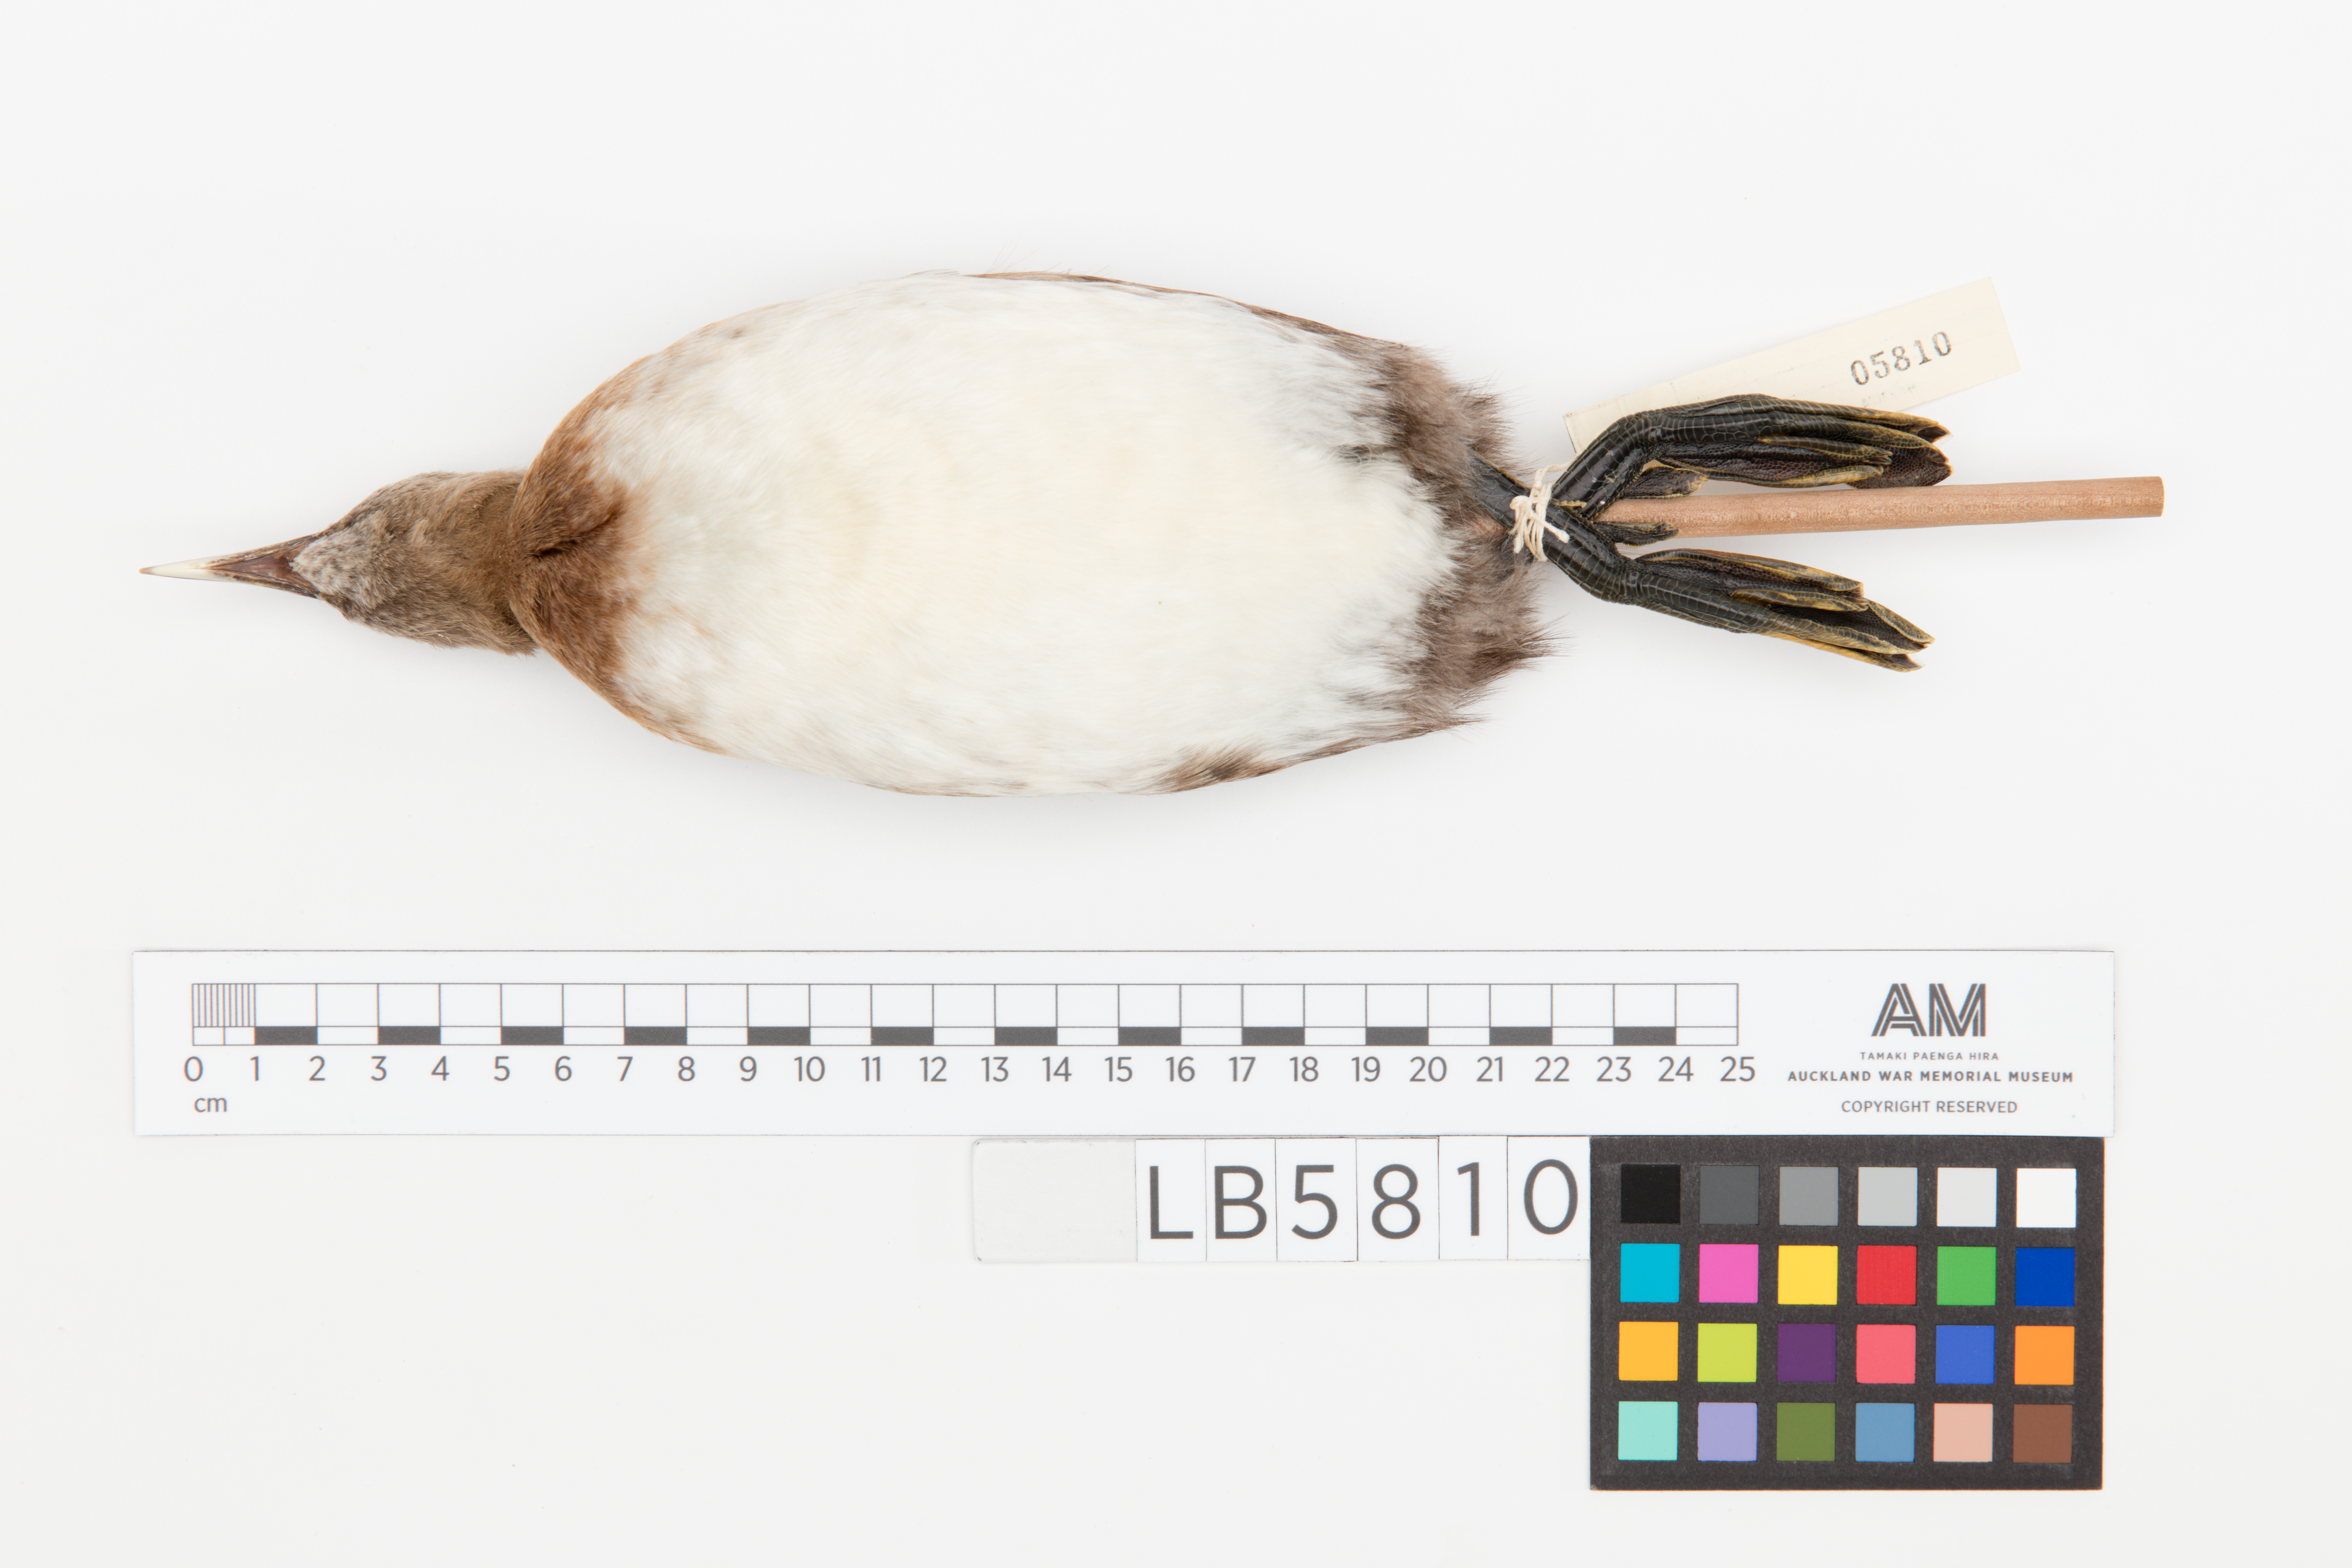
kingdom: Animalia
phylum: Chordata
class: Aves
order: Podicipediformes
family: Podicipedidae
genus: Poliocephalus
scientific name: Poliocephalus rufopectus
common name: New zealand grebe
